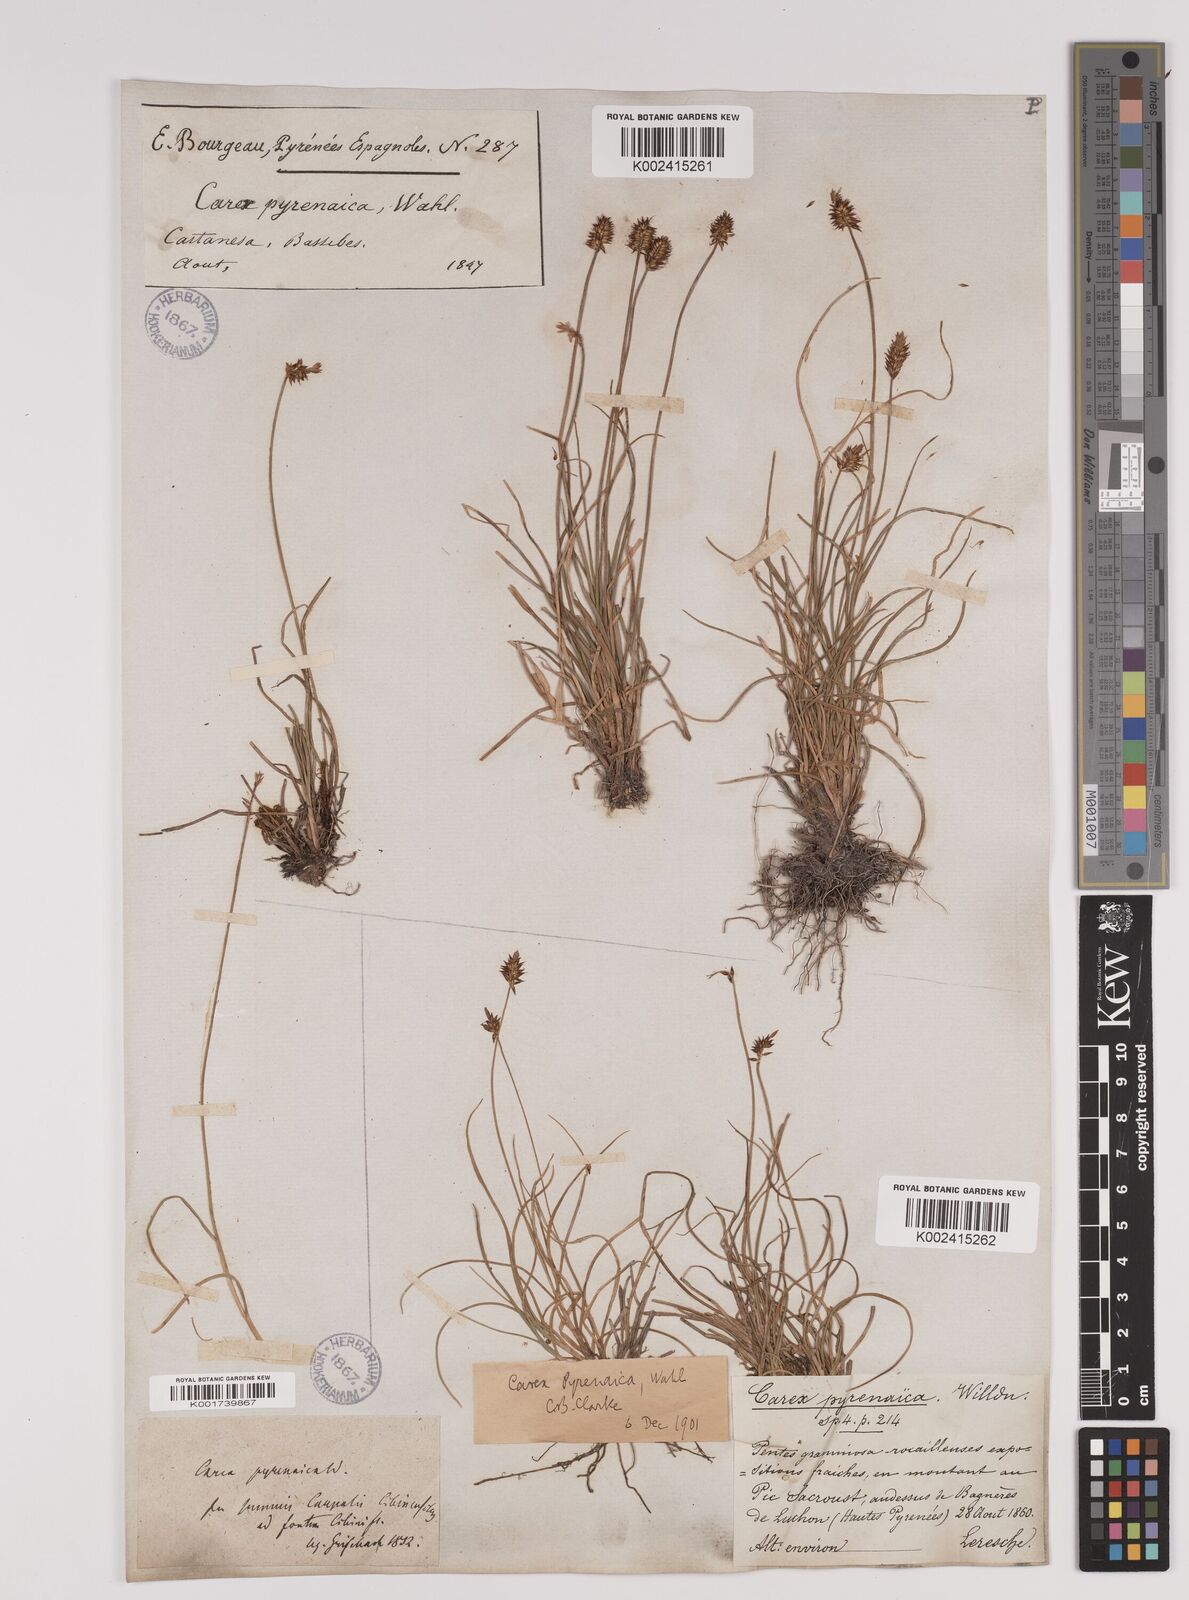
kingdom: Plantae
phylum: Tracheophyta
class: Liliopsida
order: Poales
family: Cyperaceae
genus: Carex
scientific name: Carex acicularis
